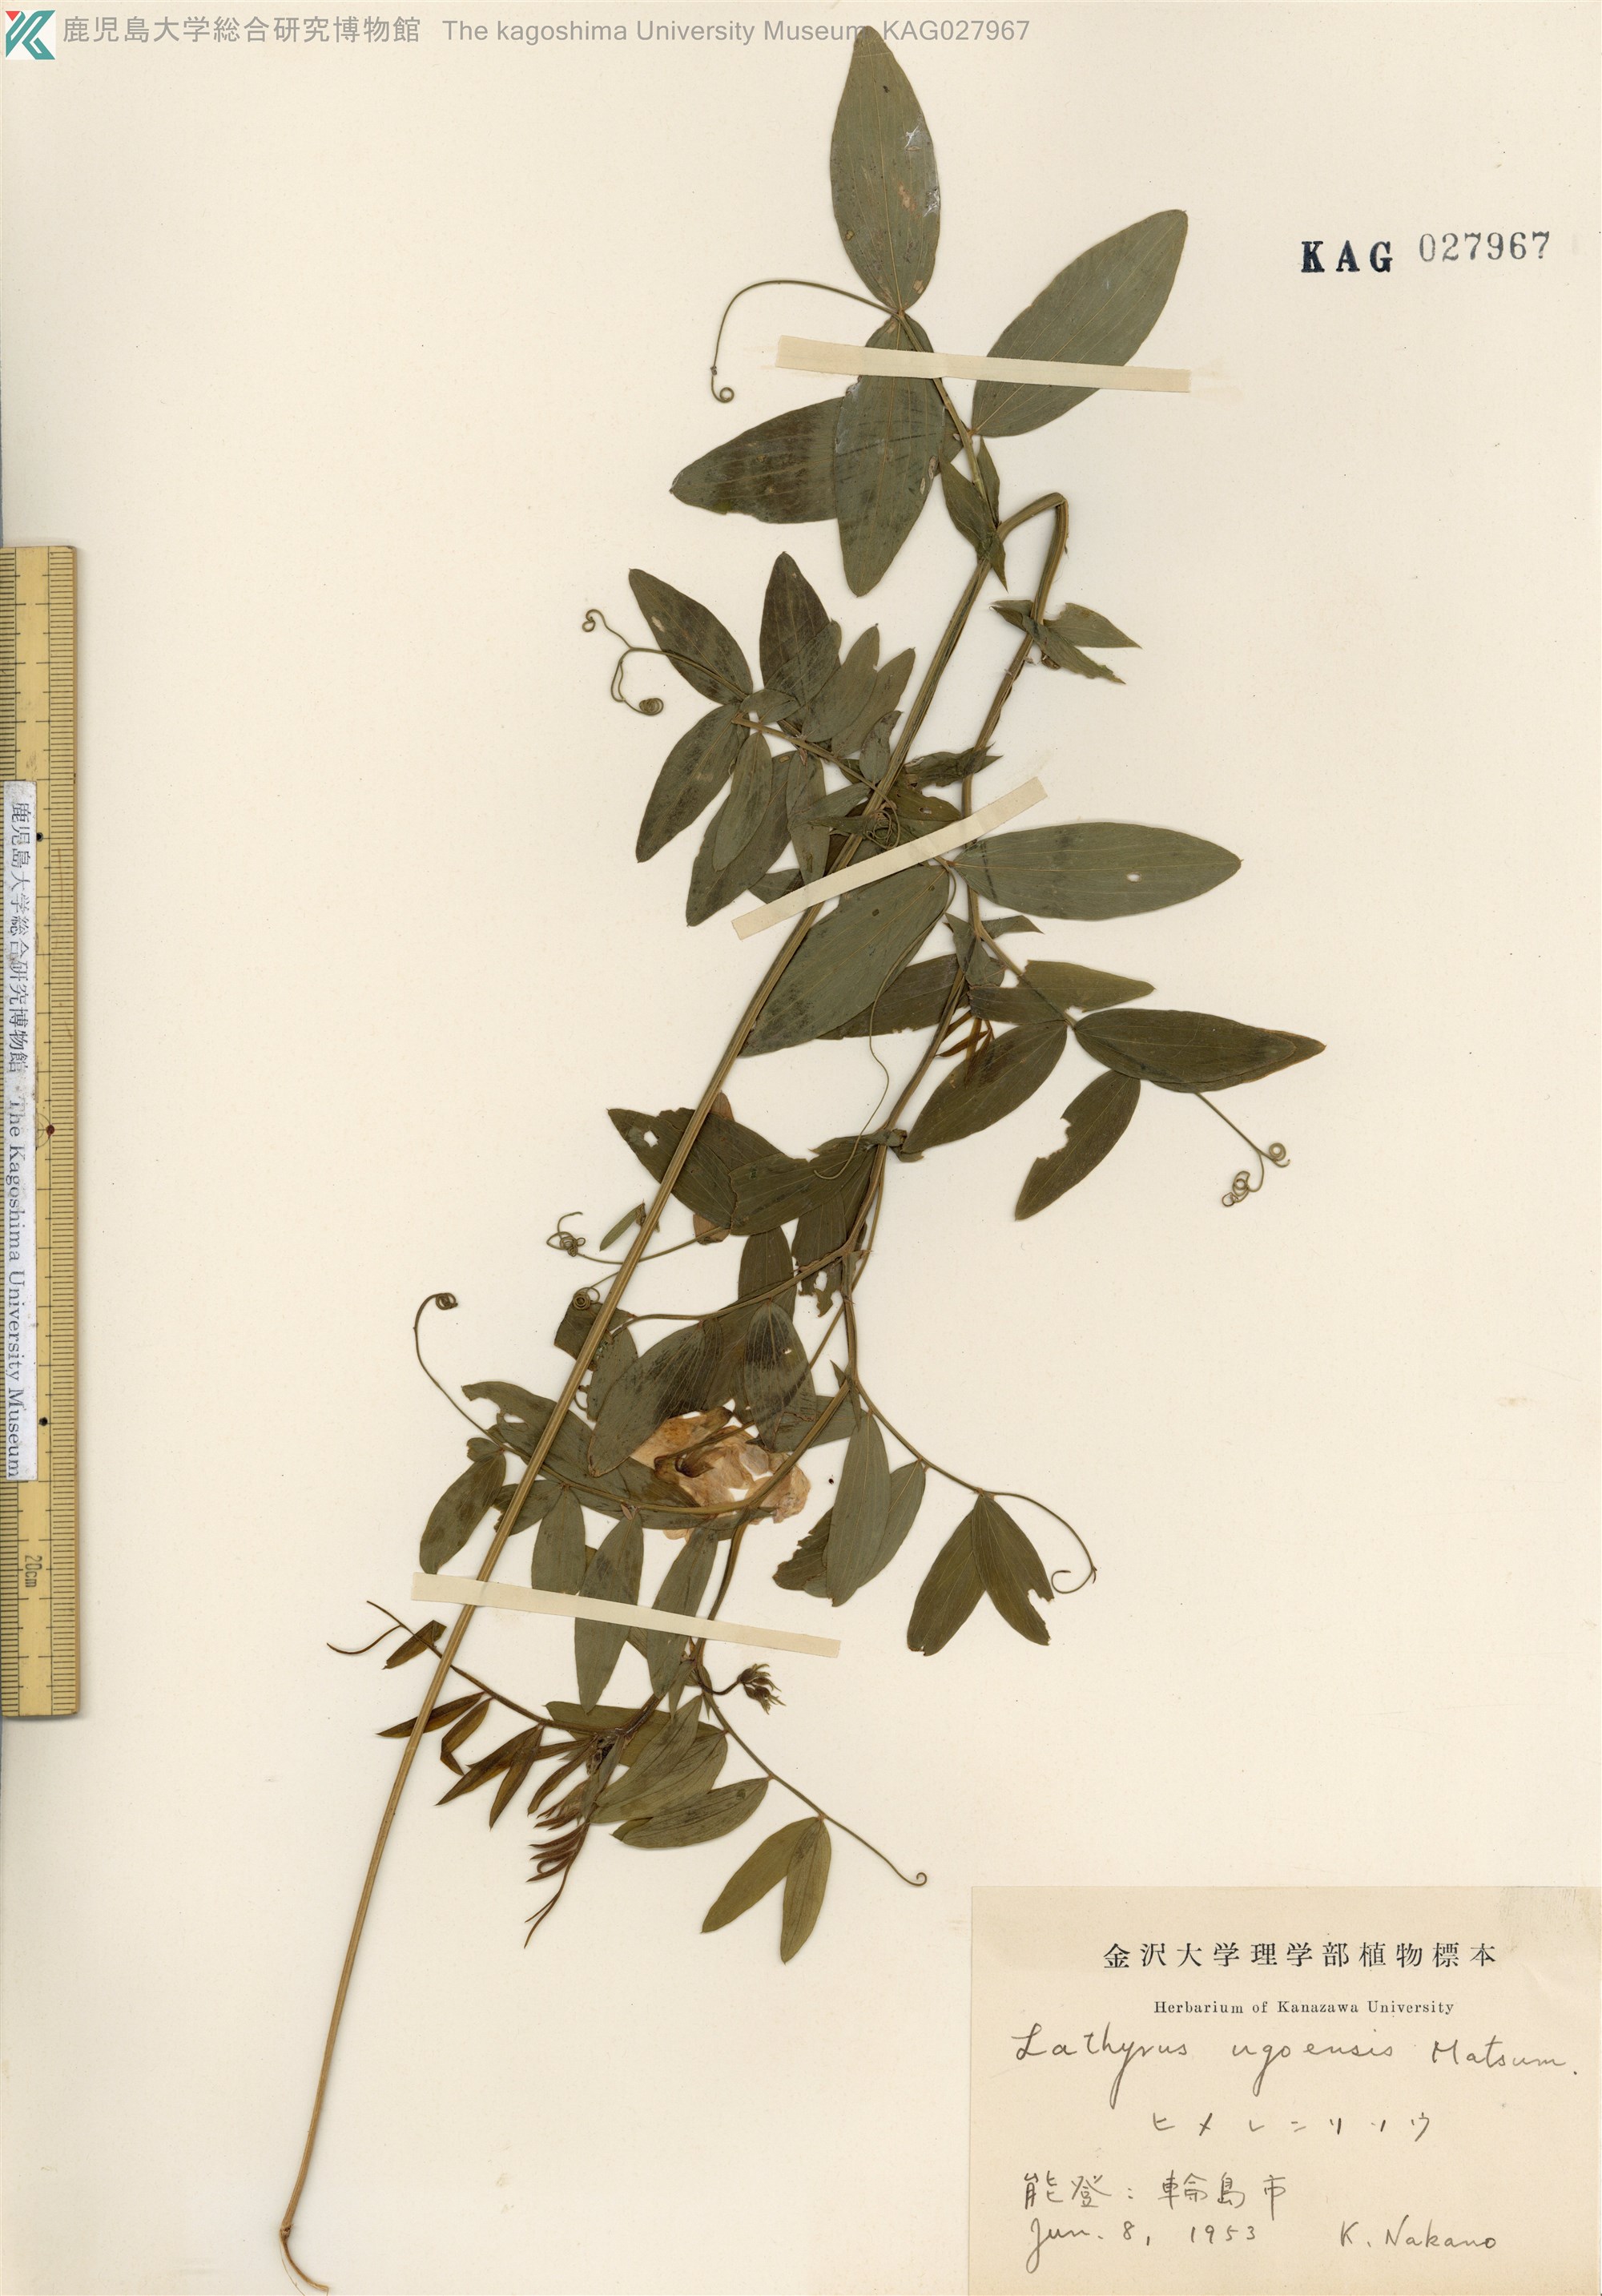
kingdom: Plantae
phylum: Tracheophyta
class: Magnoliopsida
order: Fabales
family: Fabaceae
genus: Lathyrus
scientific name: Lathyrus palustris
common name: Marsh pea
